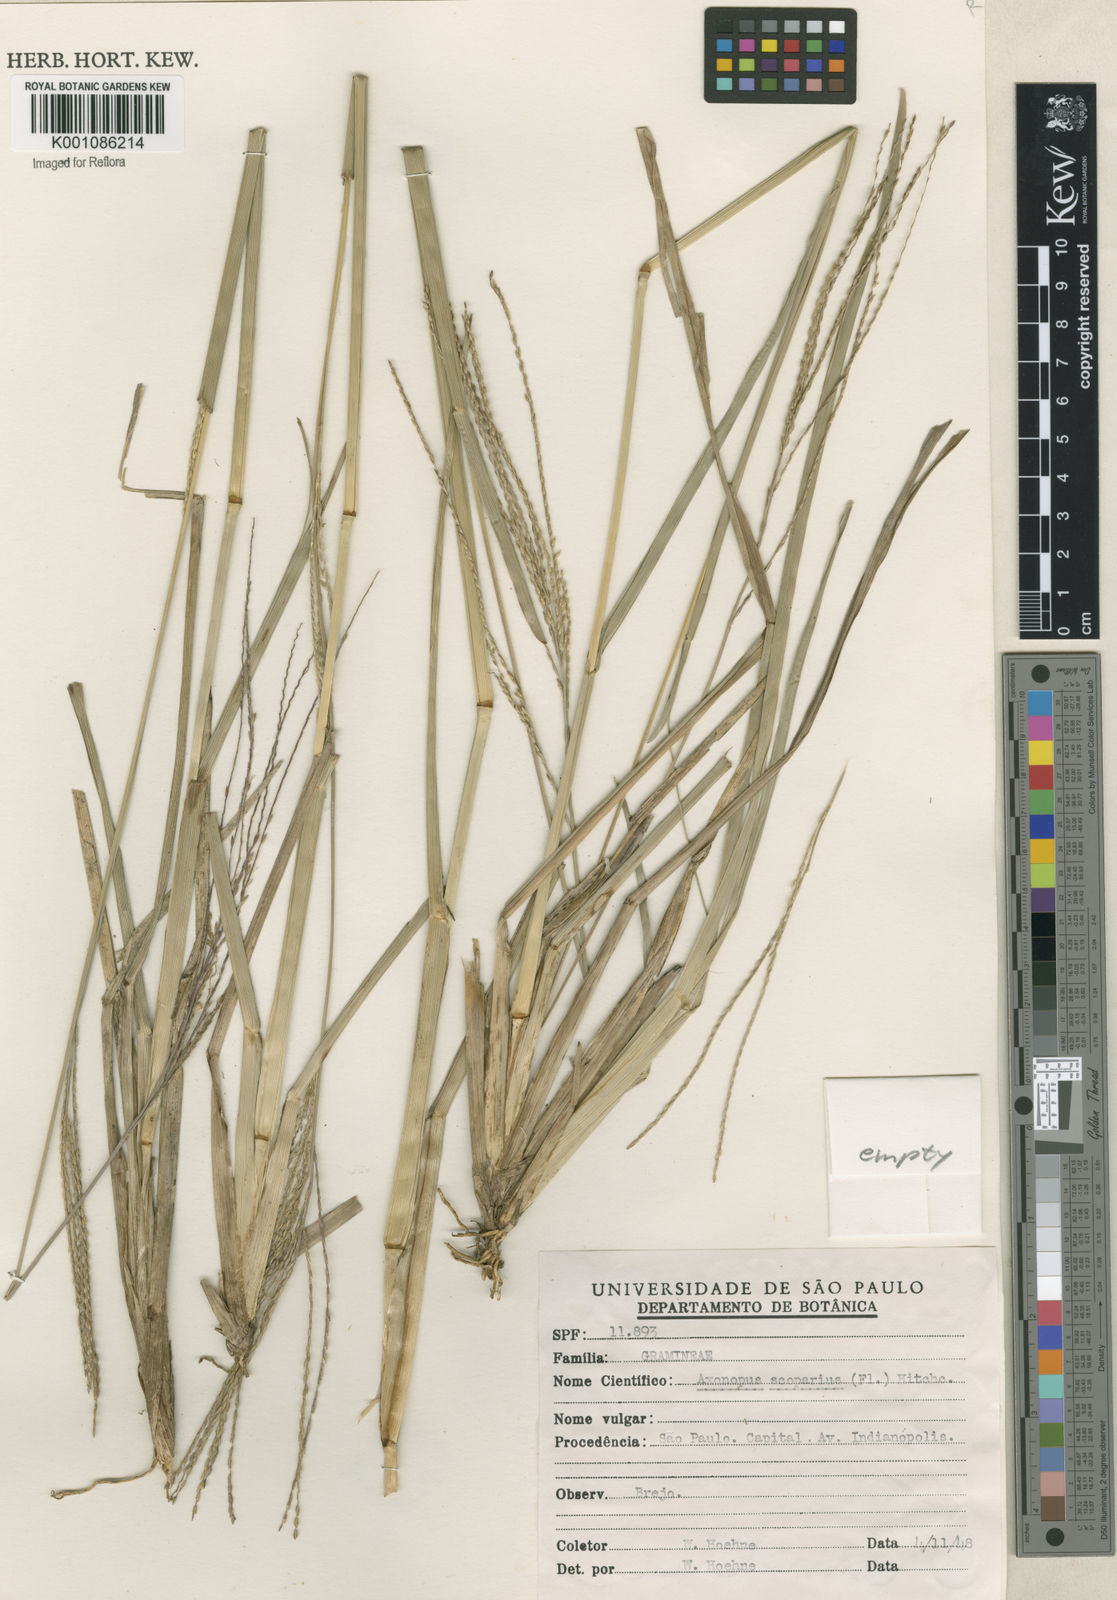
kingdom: Plantae
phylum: Tracheophyta
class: Liliopsida
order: Poales
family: Poaceae
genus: Axonopus
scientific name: Axonopus
